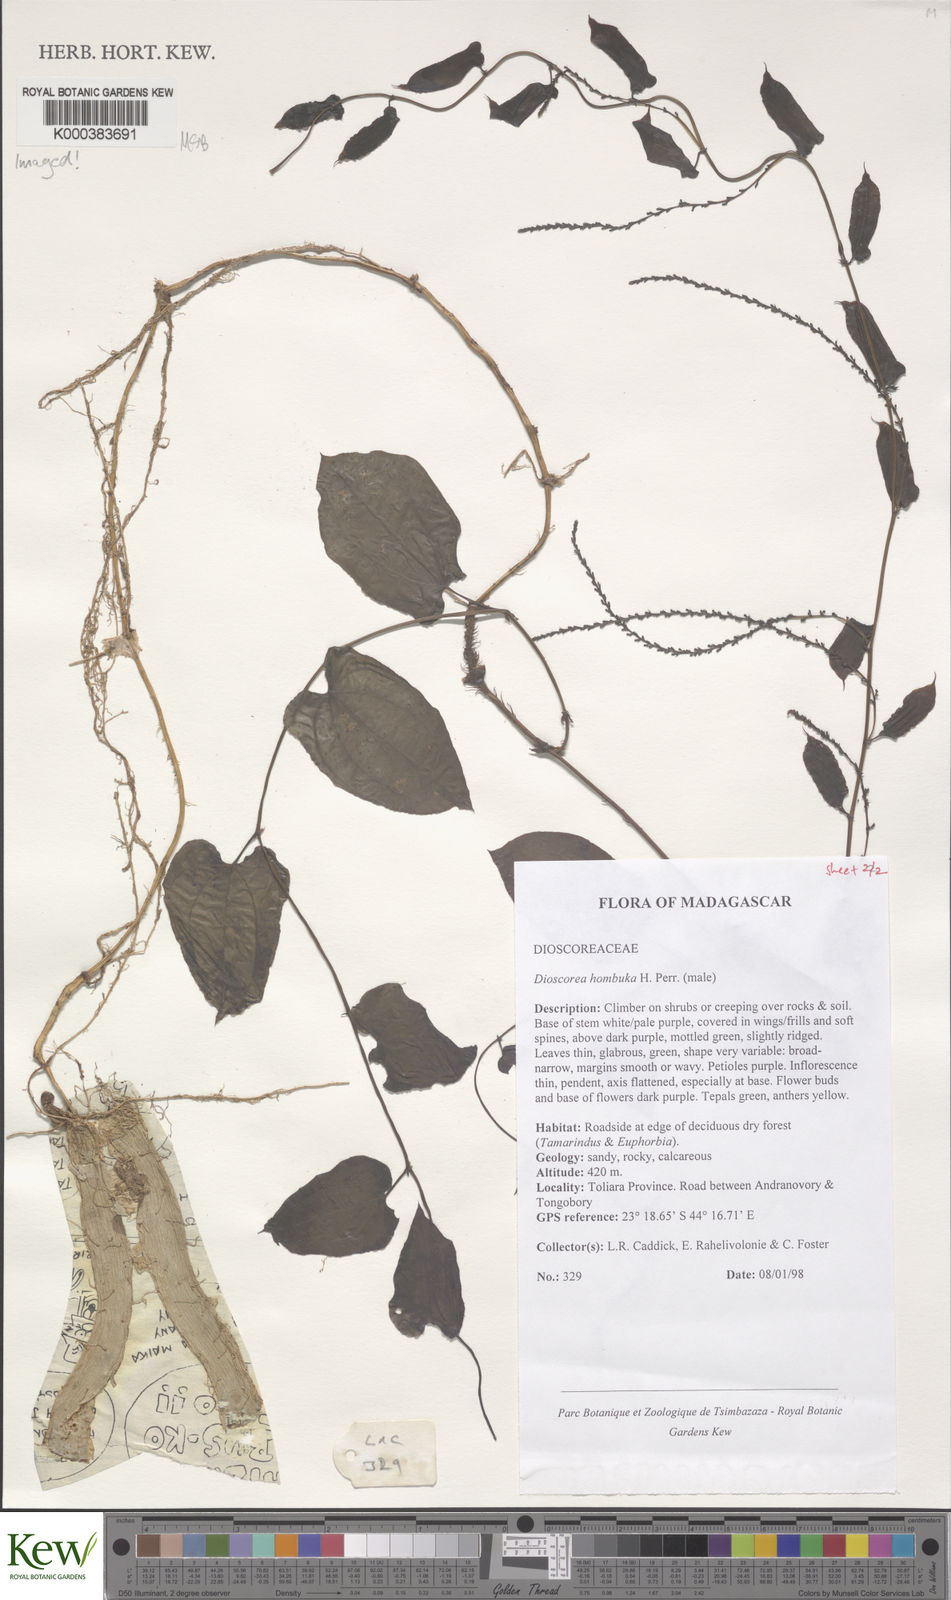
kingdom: Plantae
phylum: Tracheophyta
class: Liliopsida
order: Dioscoreales
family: Dioscoreaceae
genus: Dioscorea
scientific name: Dioscorea hombuka
